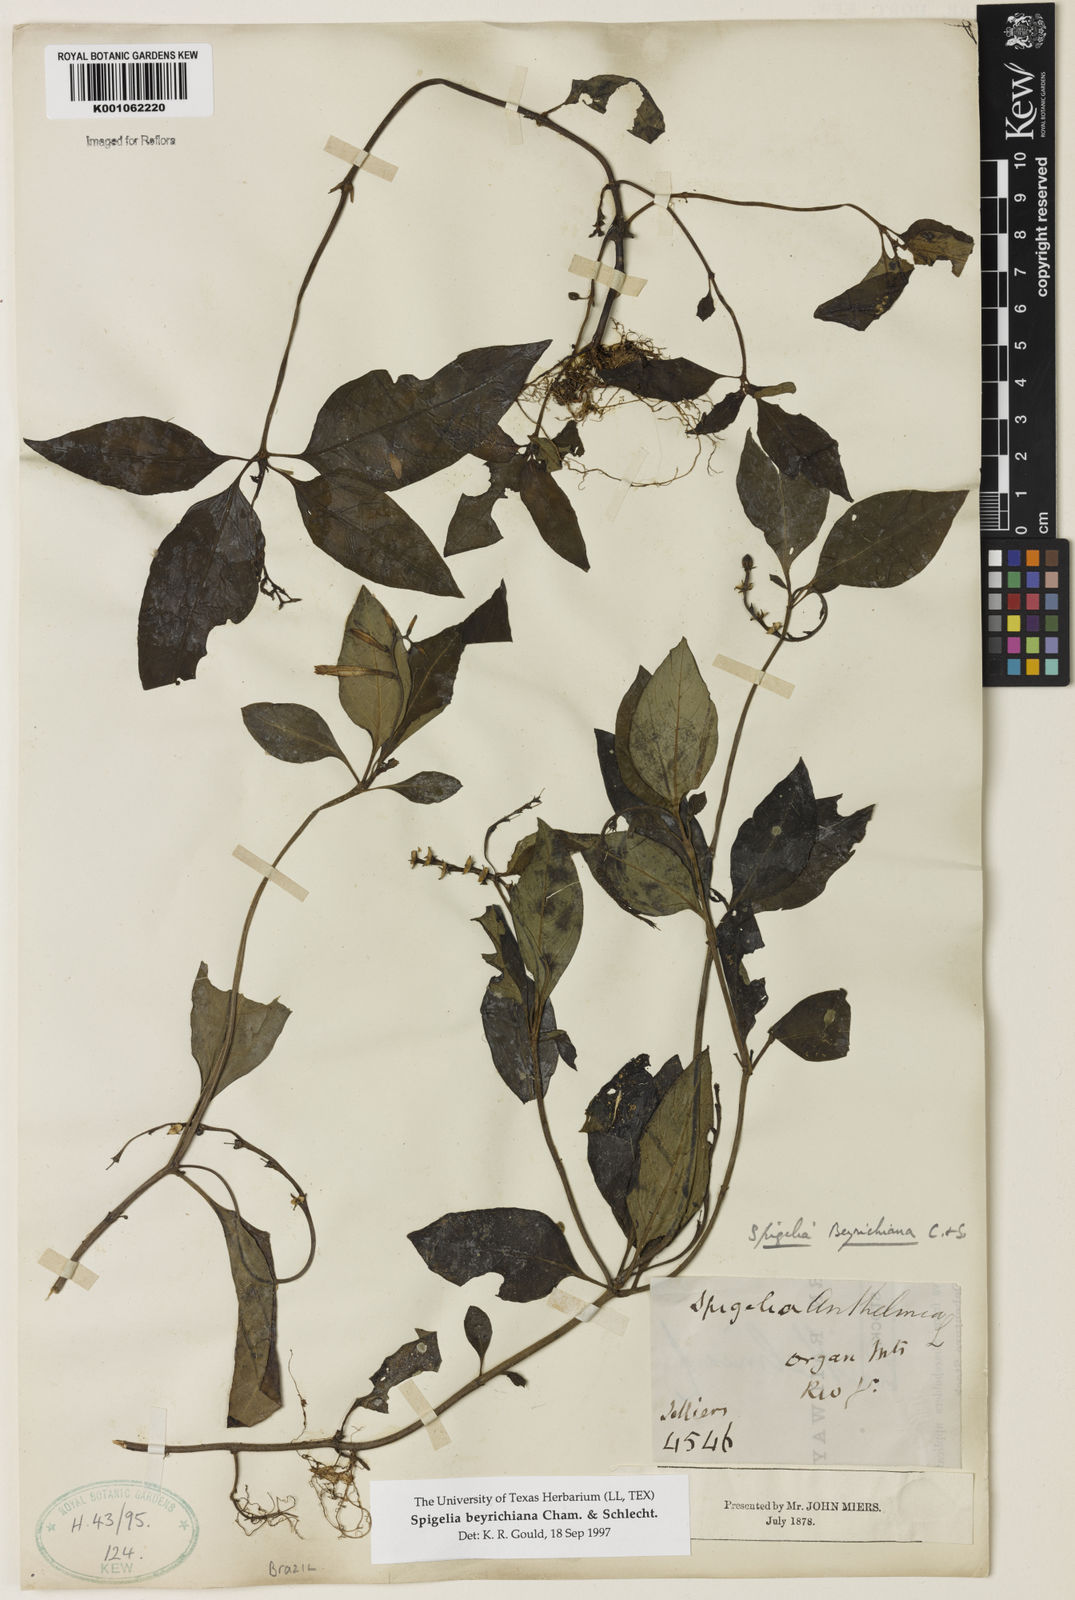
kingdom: Plantae
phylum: Tracheophyta
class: Magnoliopsida
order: Gentianales
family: Loganiaceae
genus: Spigelia
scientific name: Spigelia beyrichiana
